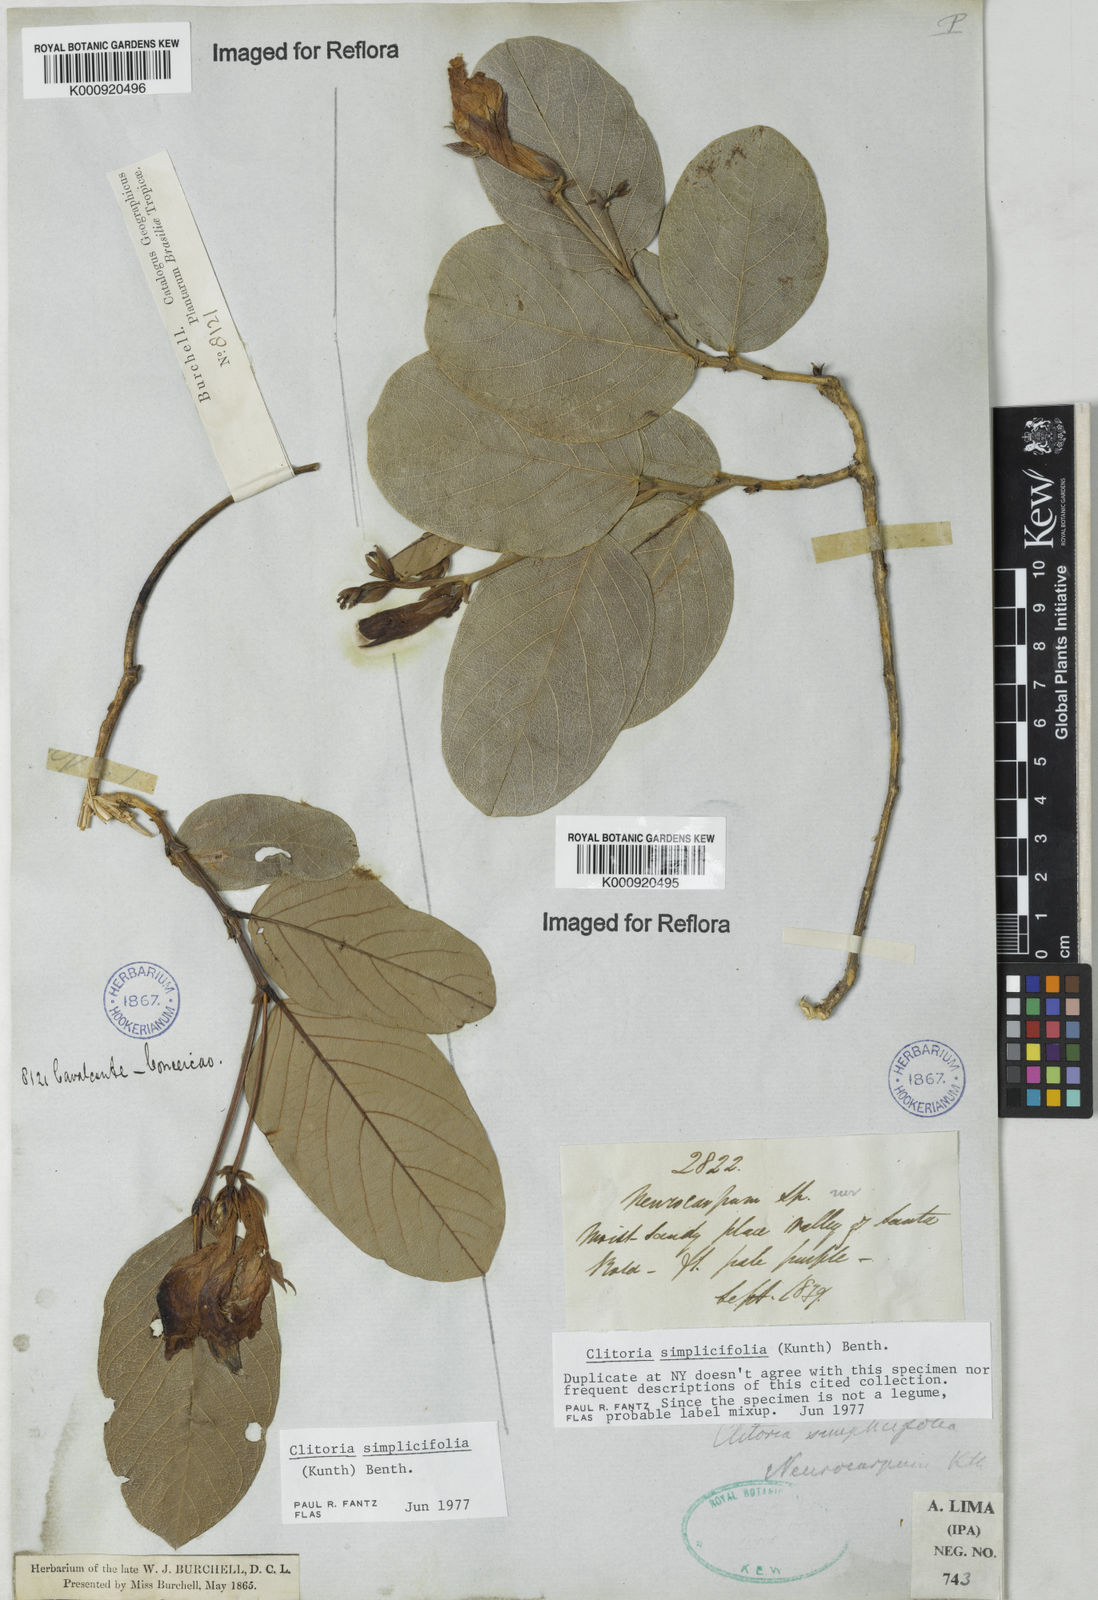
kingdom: Plantae
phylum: Tracheophyta
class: Magnoliopsida
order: Fabales
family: Fabaceae
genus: Clitoria
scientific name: Clitoria simplicifolia
